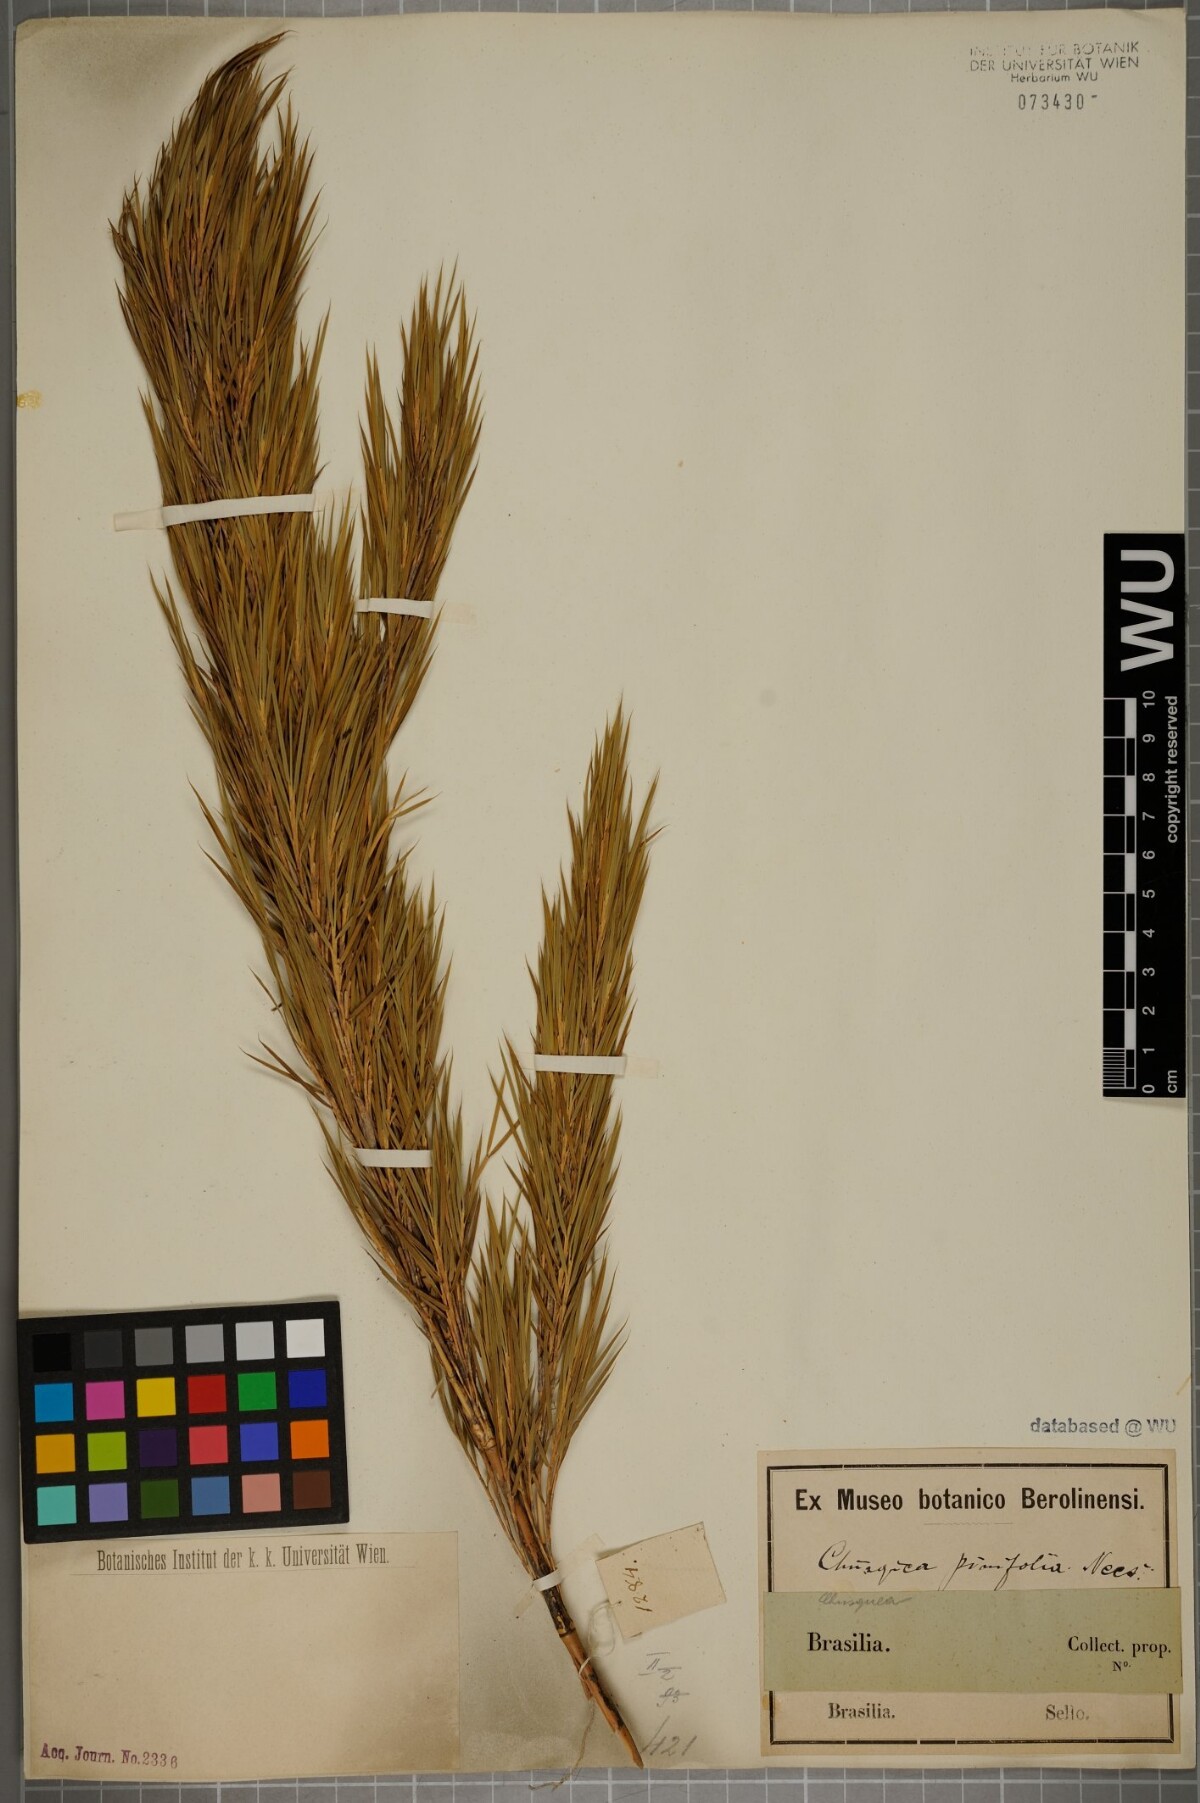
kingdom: Plantae
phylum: Tracheophyta
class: Liliopsida
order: Poales
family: Poaceae
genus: Chusquea
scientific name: Chusquea pinifolia
